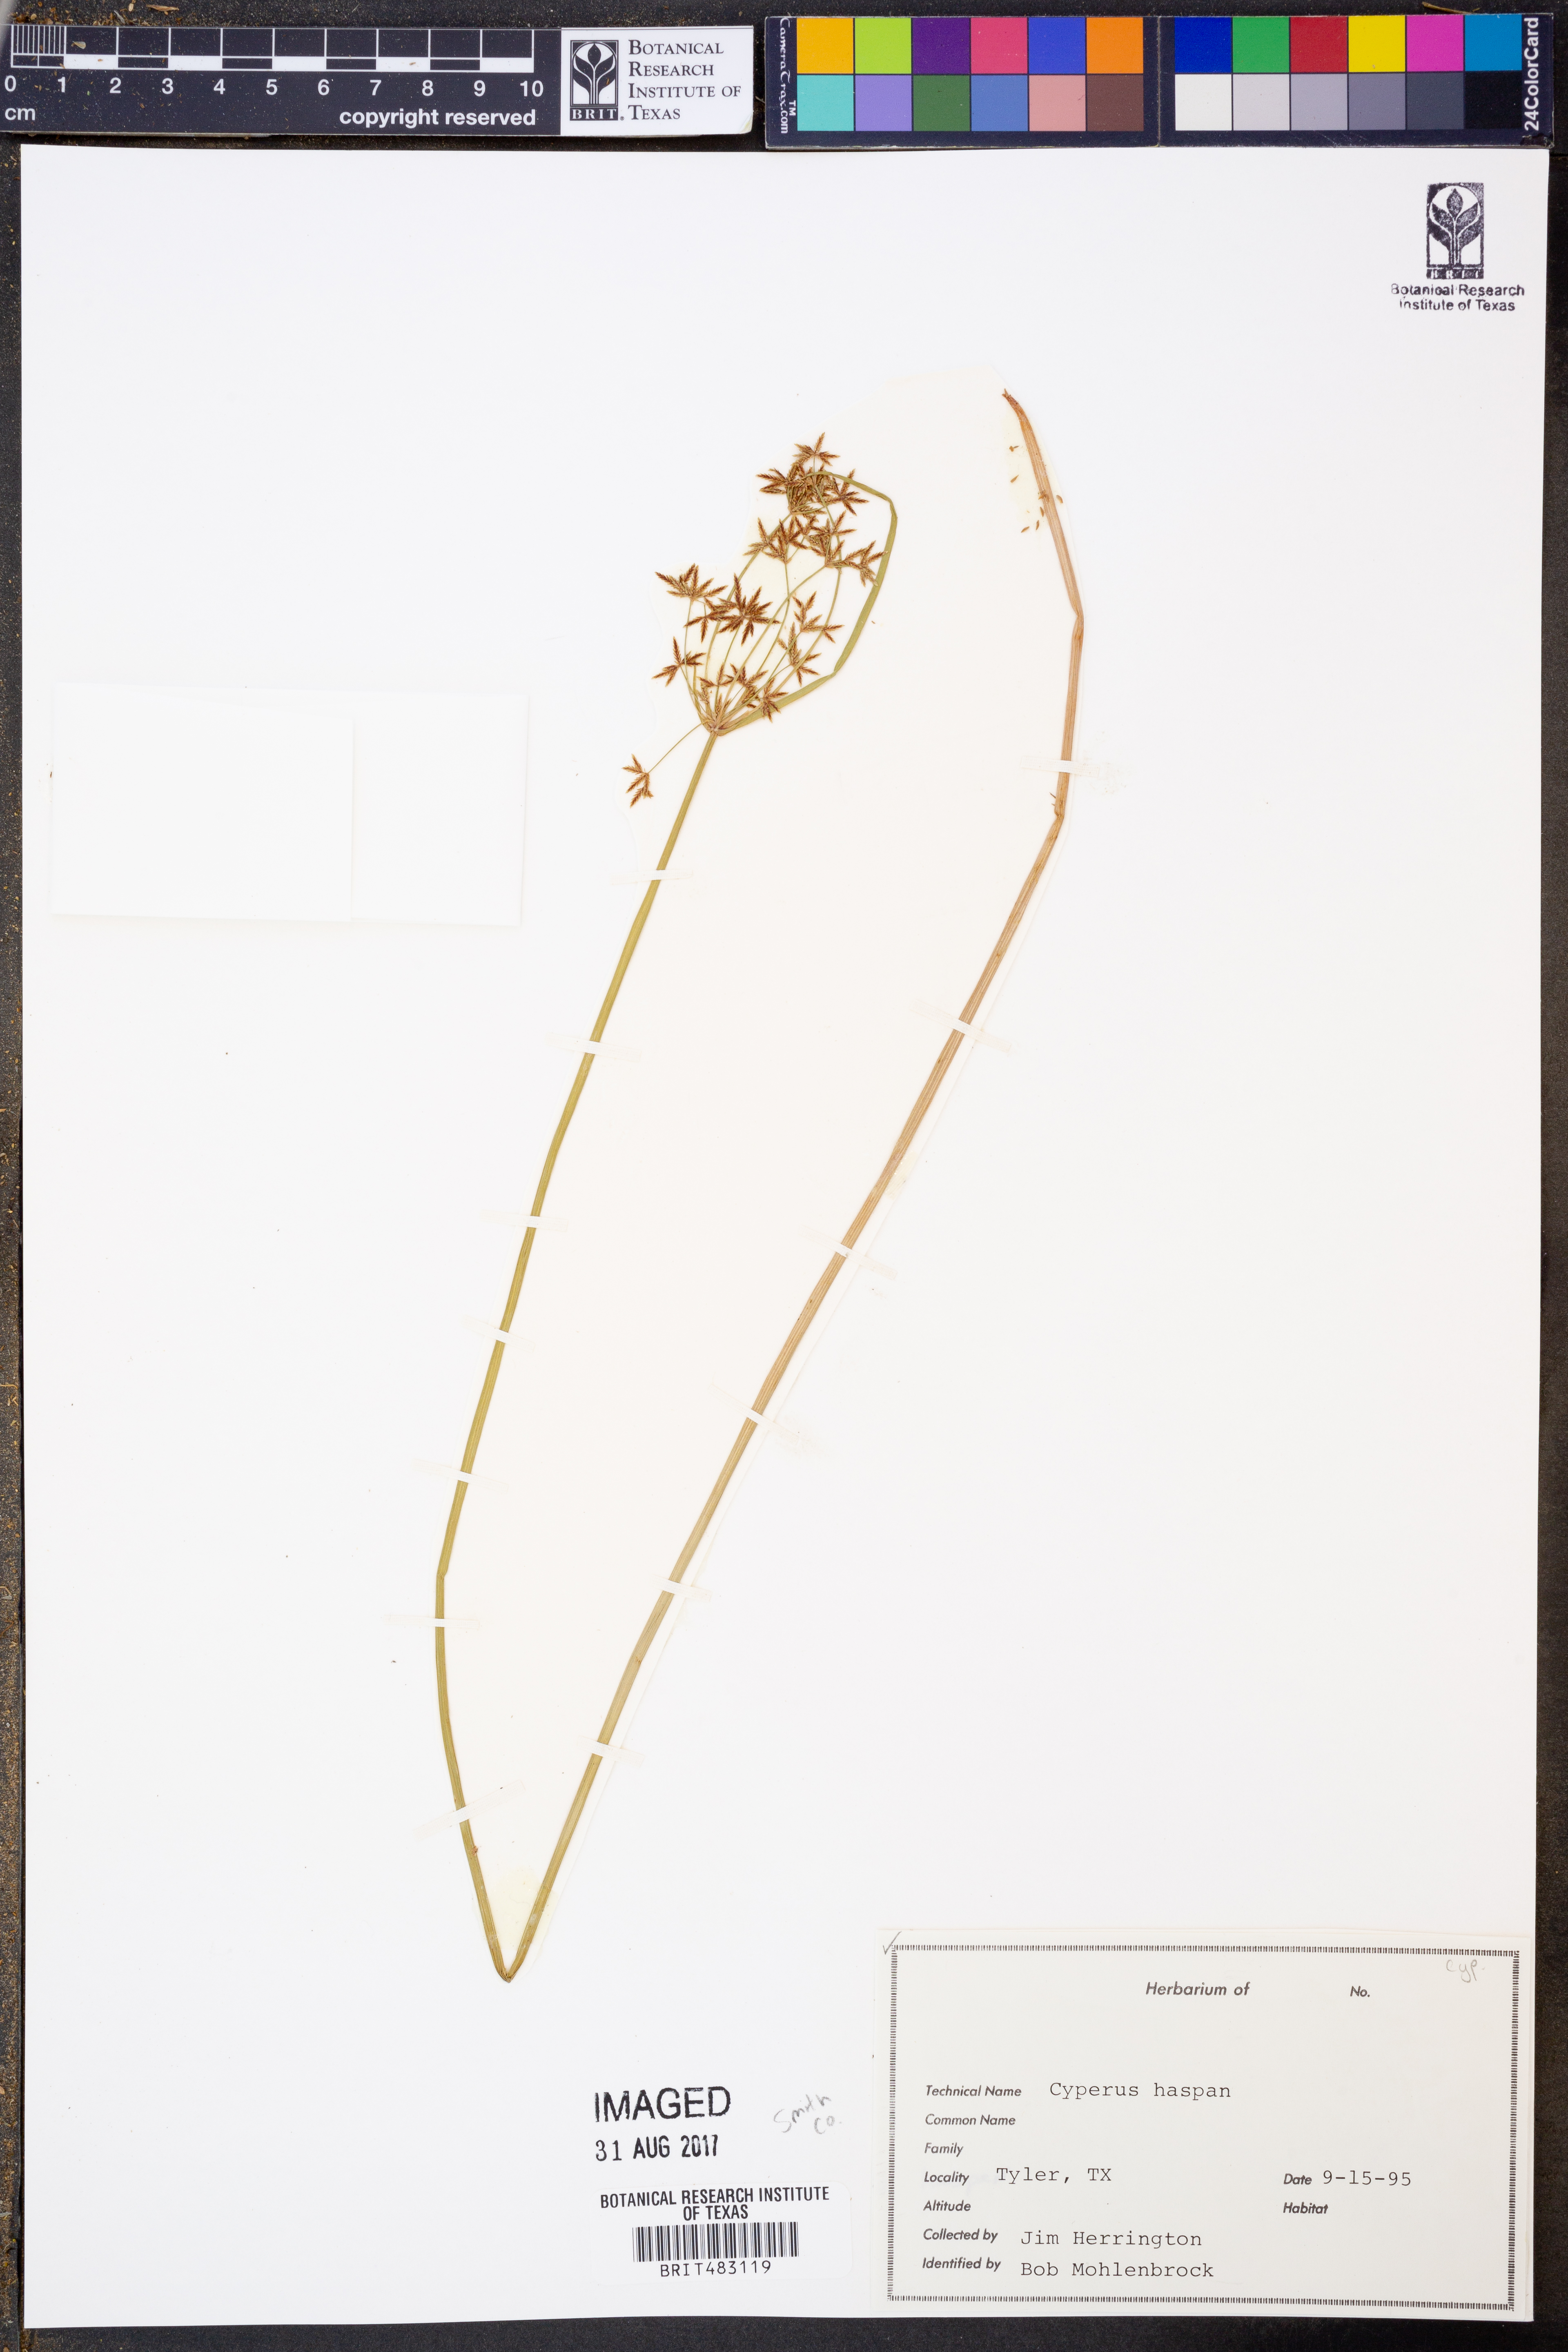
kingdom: Plantae
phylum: Tracheophyta
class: Liliopsida
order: Poales
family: Cyperaceae
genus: Cyperus
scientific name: Cyperus haspan
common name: Haspan flatsedge
